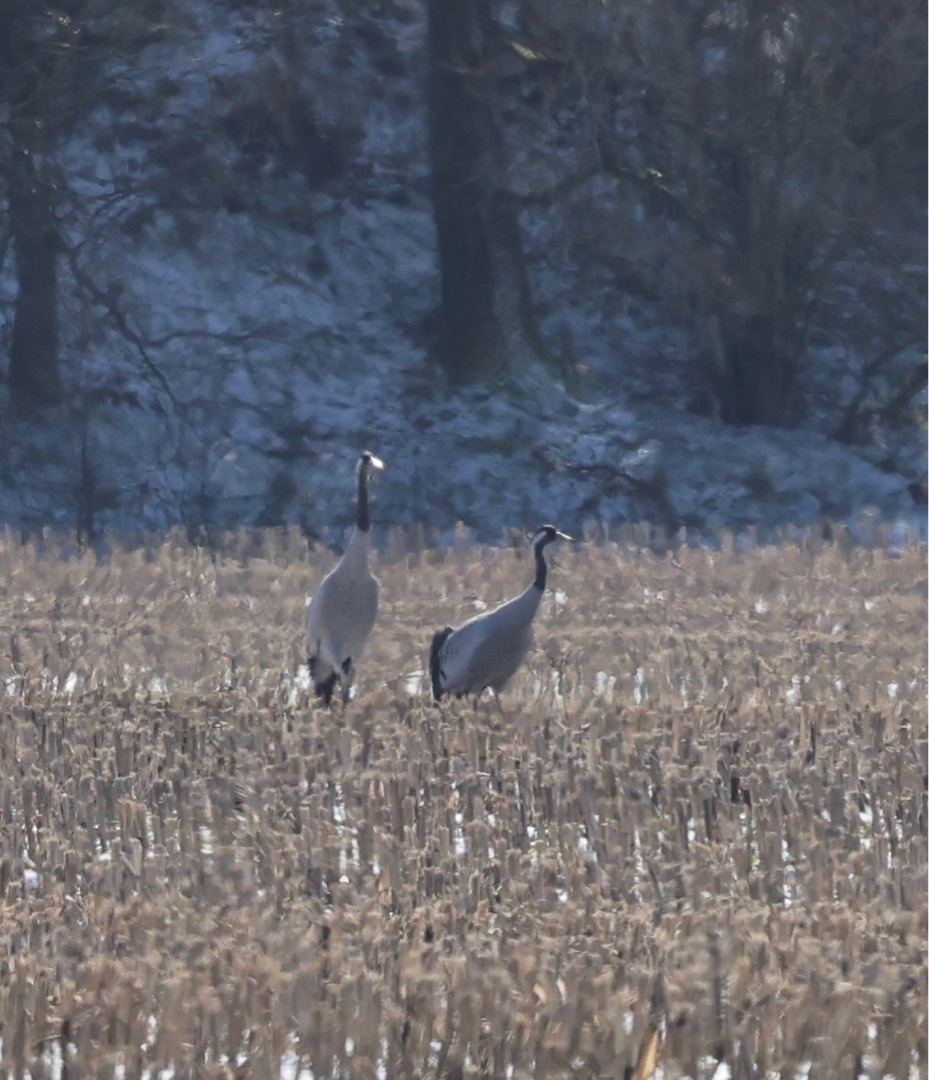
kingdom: Animalia
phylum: Chordata
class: Aves
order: Gruiformes
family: Gruidae
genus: Grus
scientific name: Grus grus
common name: Trane
